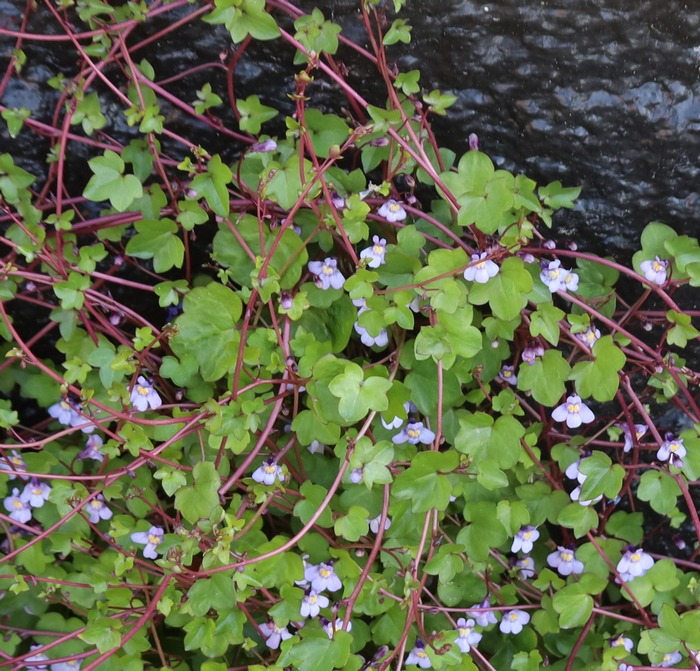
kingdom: Plantae
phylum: Tracheophyta
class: Magnoliopsida
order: Lamiales
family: Plantaginaceae
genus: Cymbalaria
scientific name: Cymbalaria muralis
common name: Vedbend-torskemund
